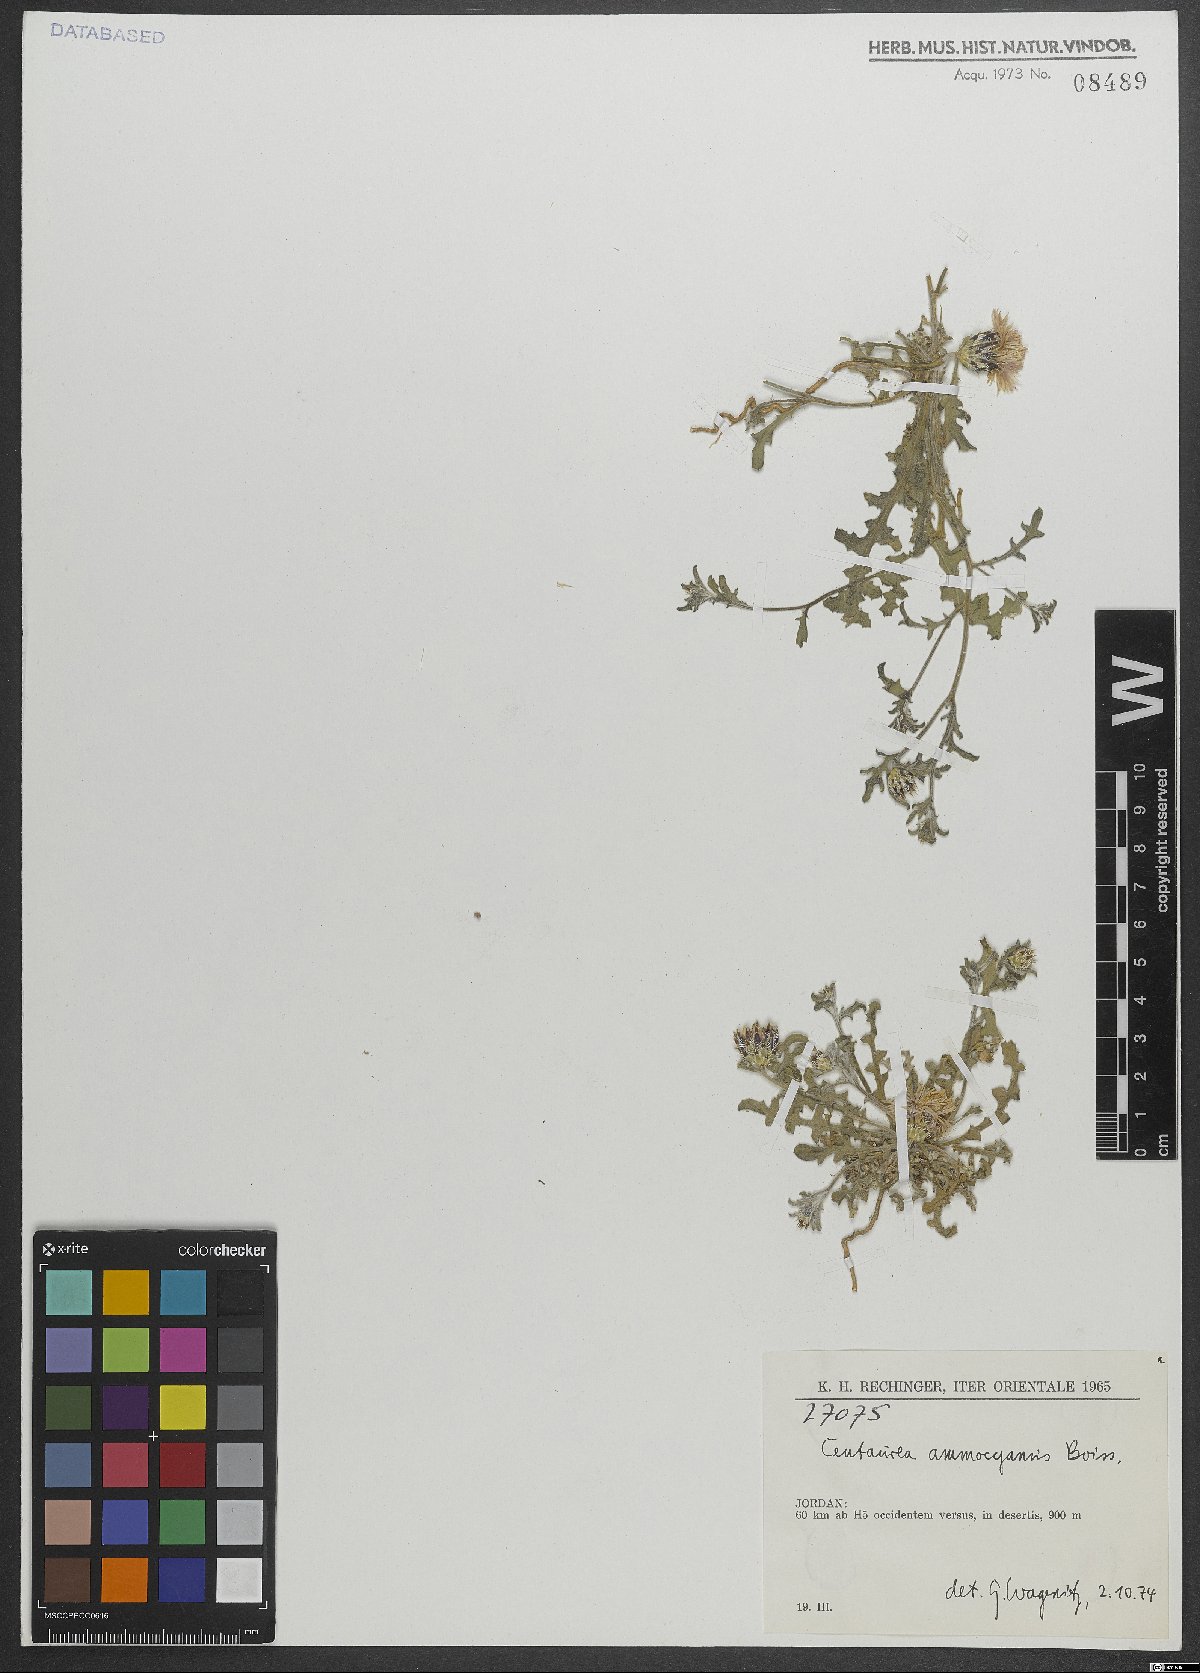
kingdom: Plantae
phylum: Tracheophyta
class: Magnoliopsida
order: Asterales
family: Asteraceae
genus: Centaurea
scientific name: Centaurea ammocyanus
